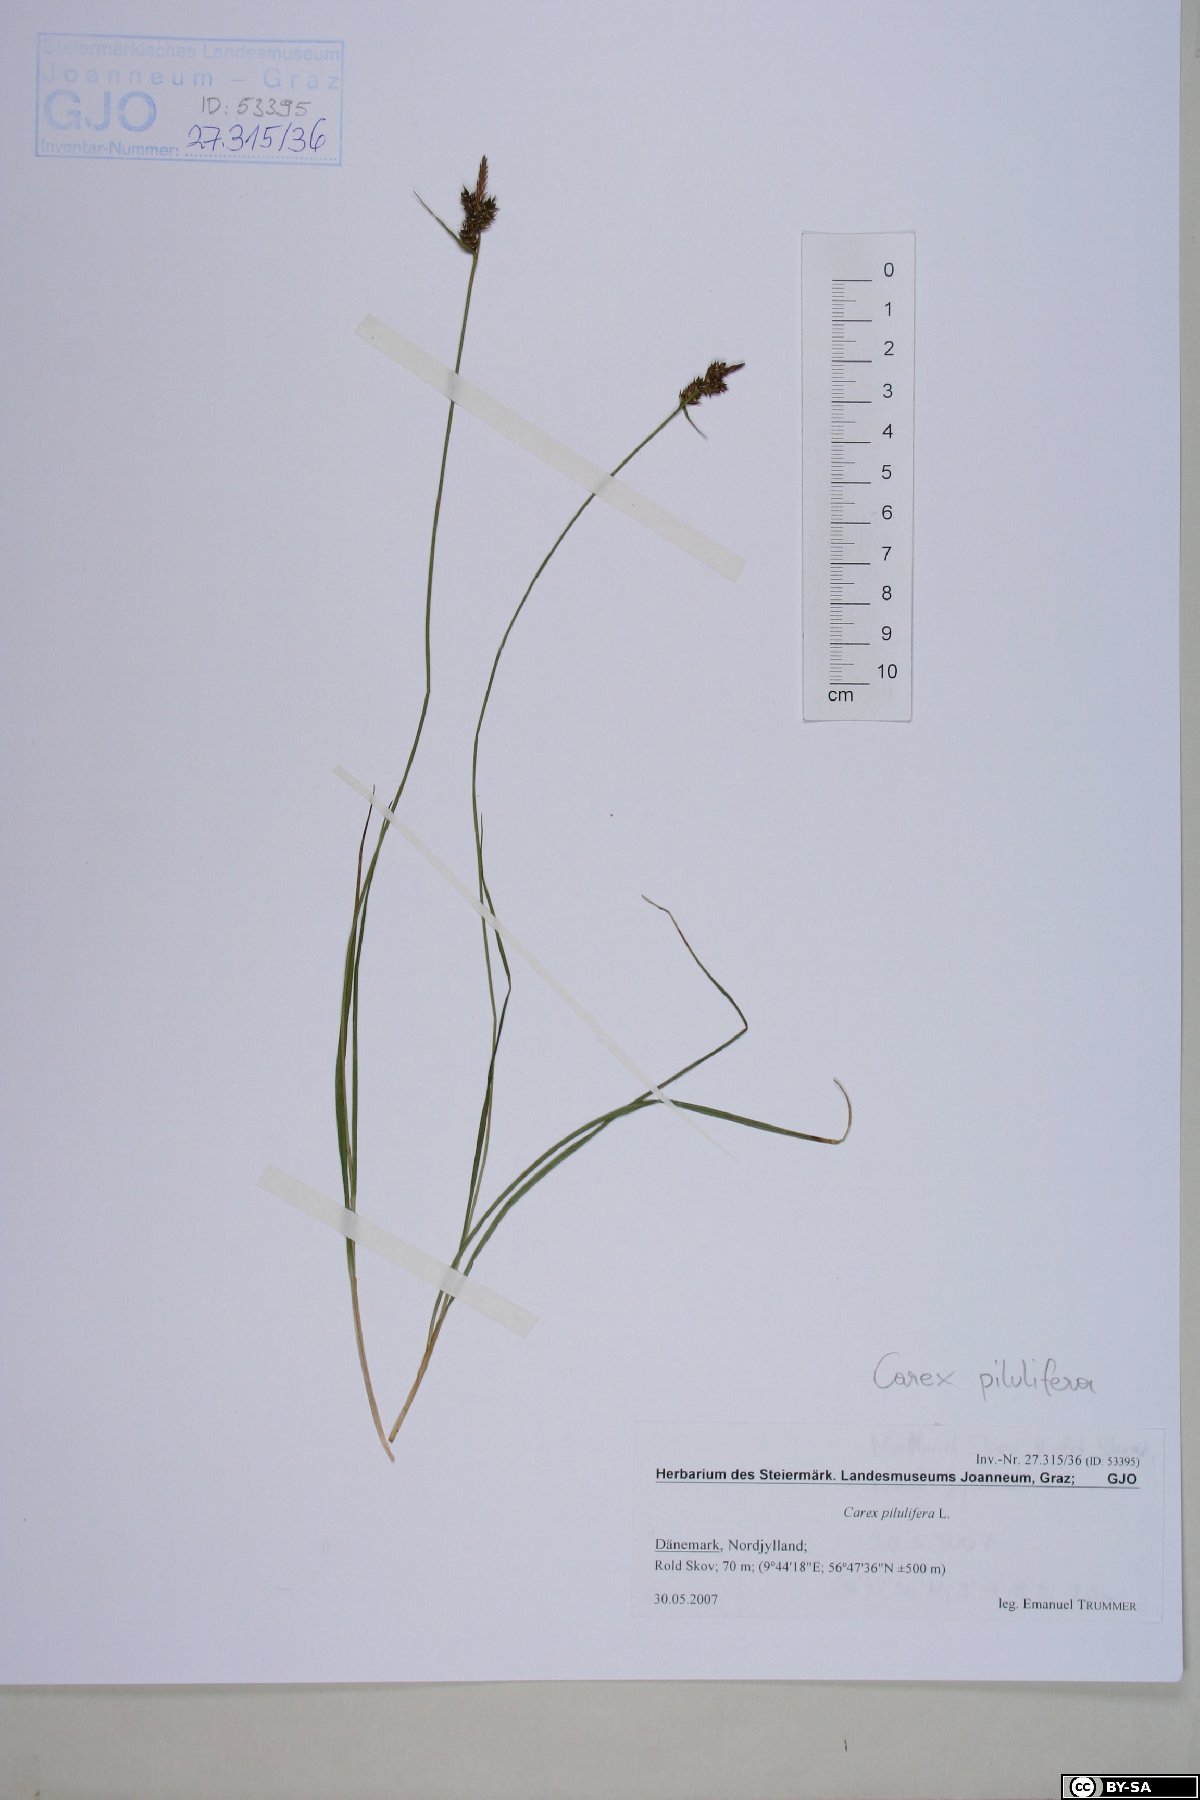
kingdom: Plantae
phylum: Tracheophyta
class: Liliopsida
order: Poales
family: Cyperaceae
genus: Carex
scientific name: Carex pilulifera
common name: Pill sedge
